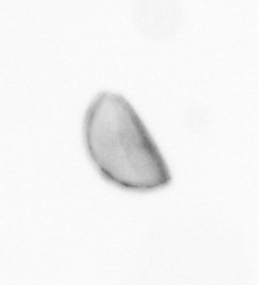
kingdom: Chromista
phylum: Ochrophyta
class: Bacillariophyceae
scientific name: Bacillariophyceae
